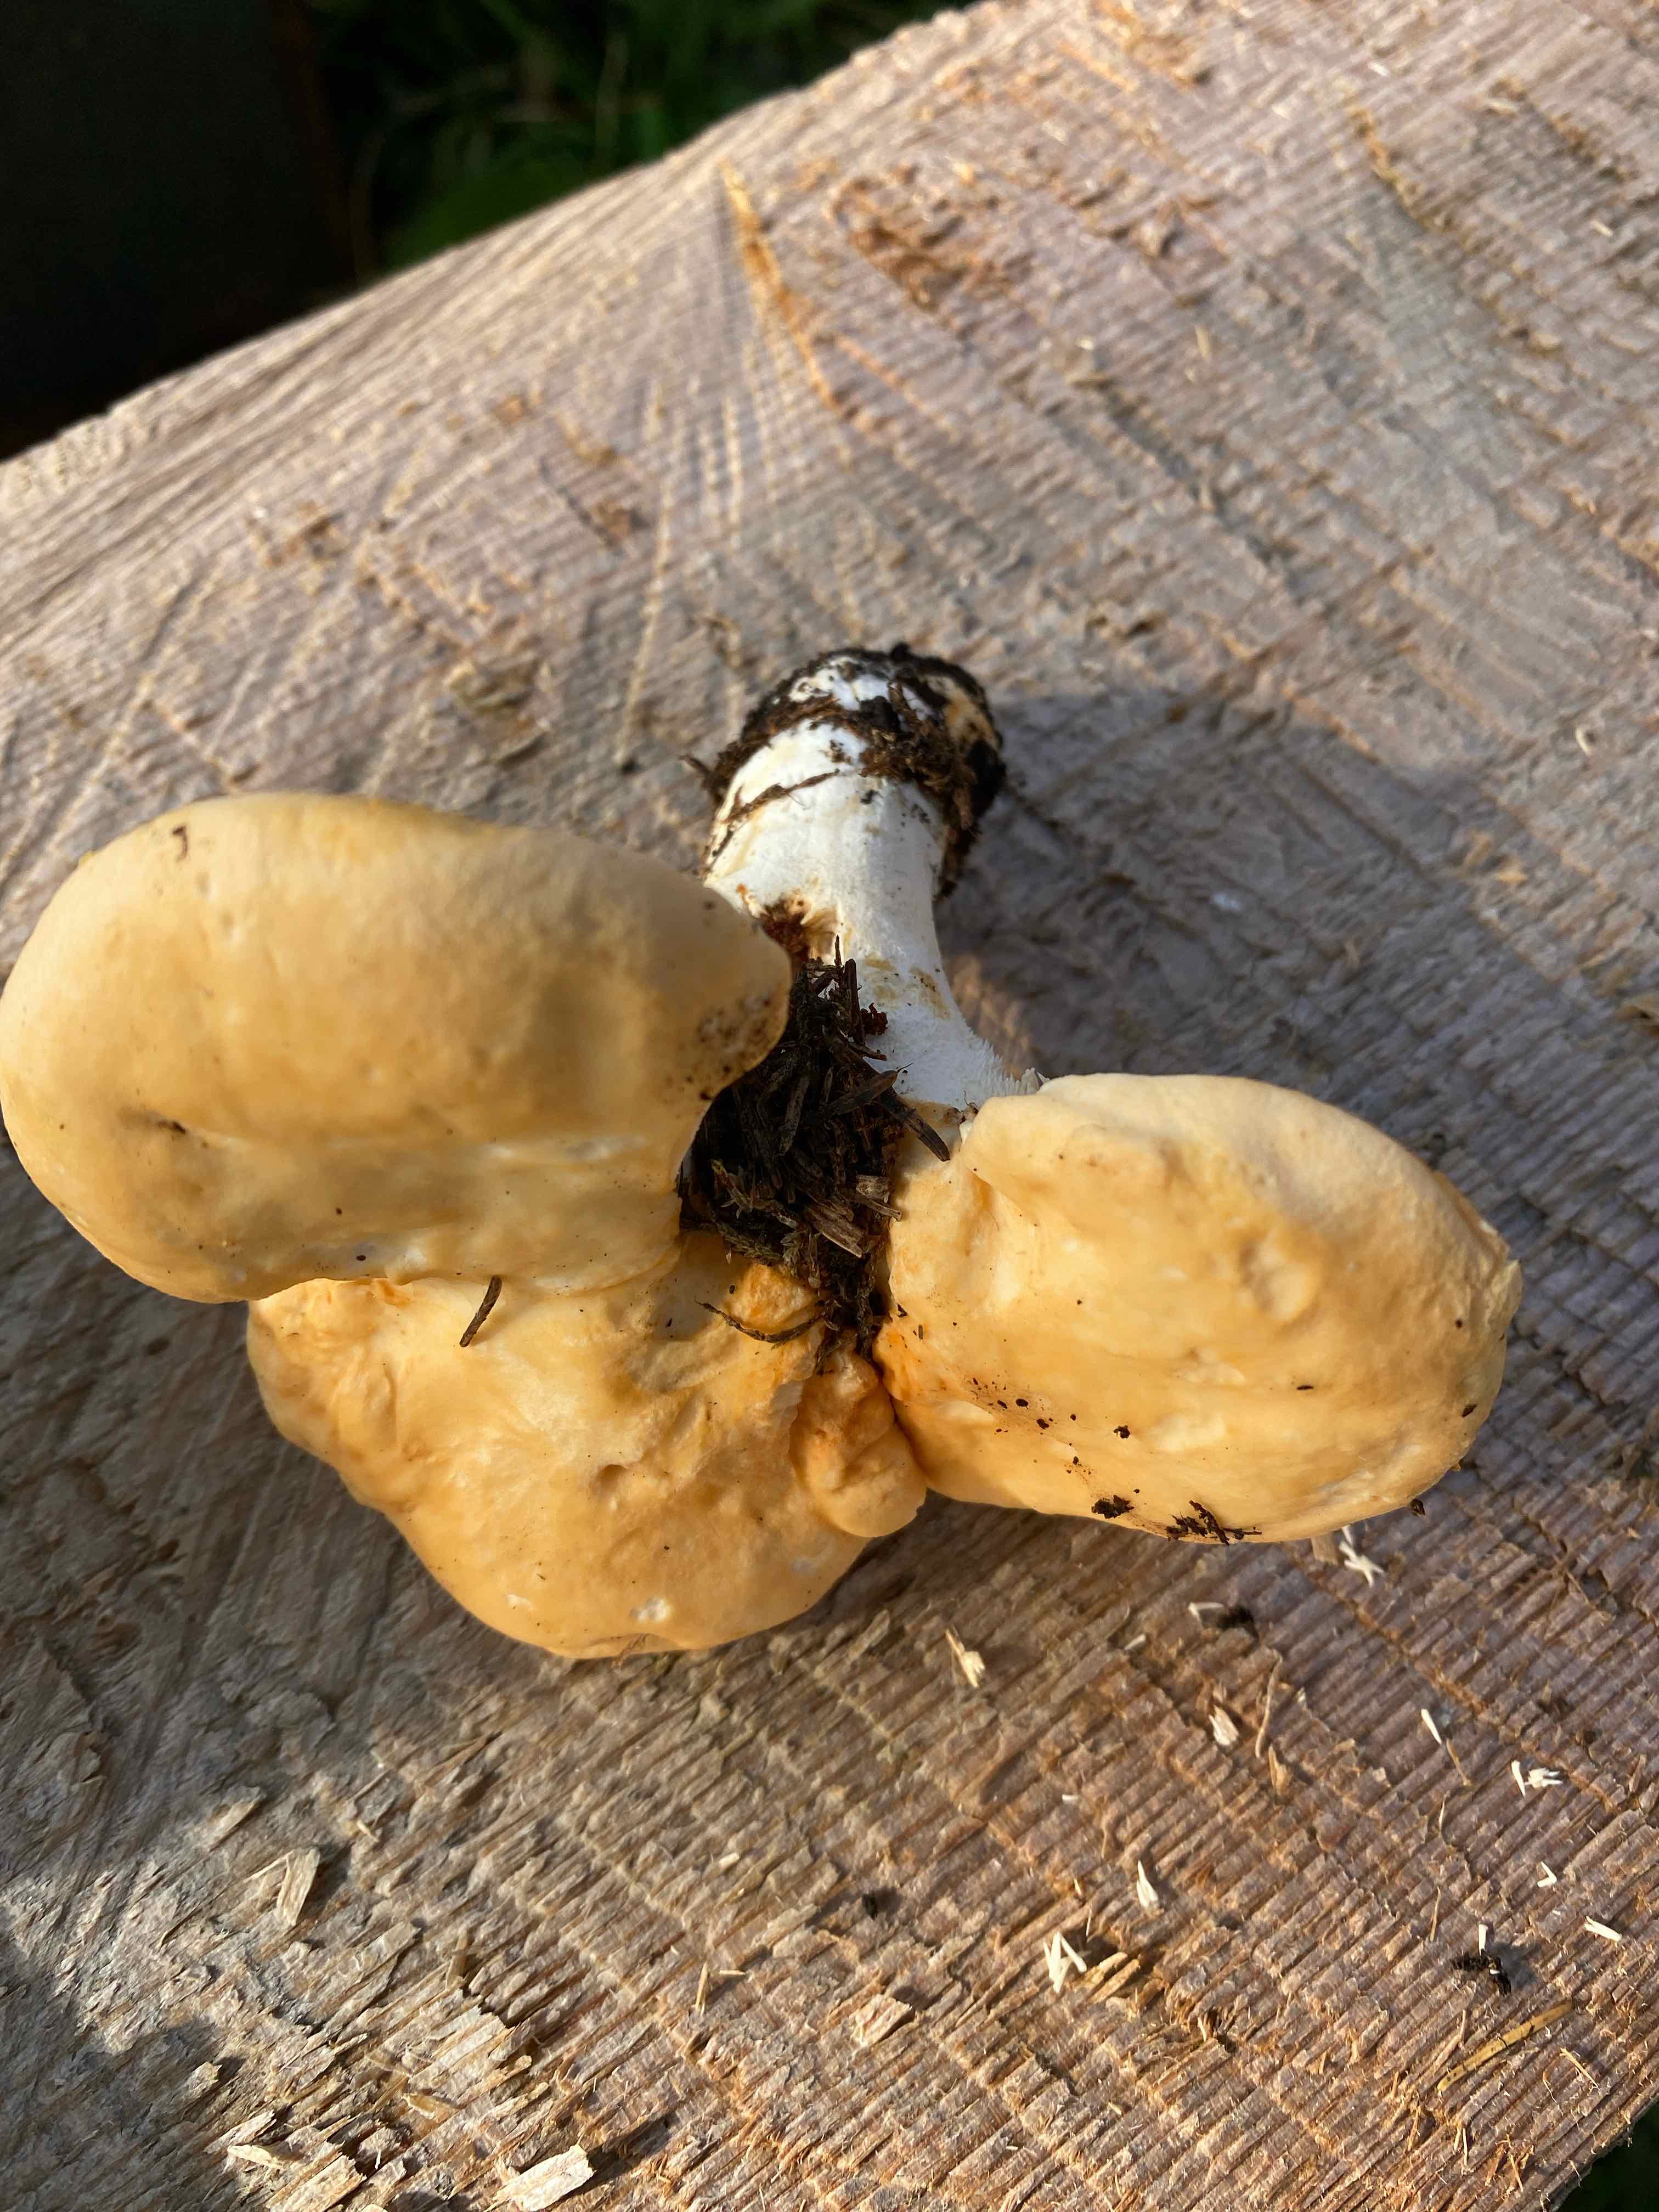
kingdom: Fungi
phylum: Basidiomycota
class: Agaricomycetes
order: Cantharellales
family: Hydnaceae
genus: Hydnum
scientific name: Hydnum repandum
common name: almindelig pigsvamp
